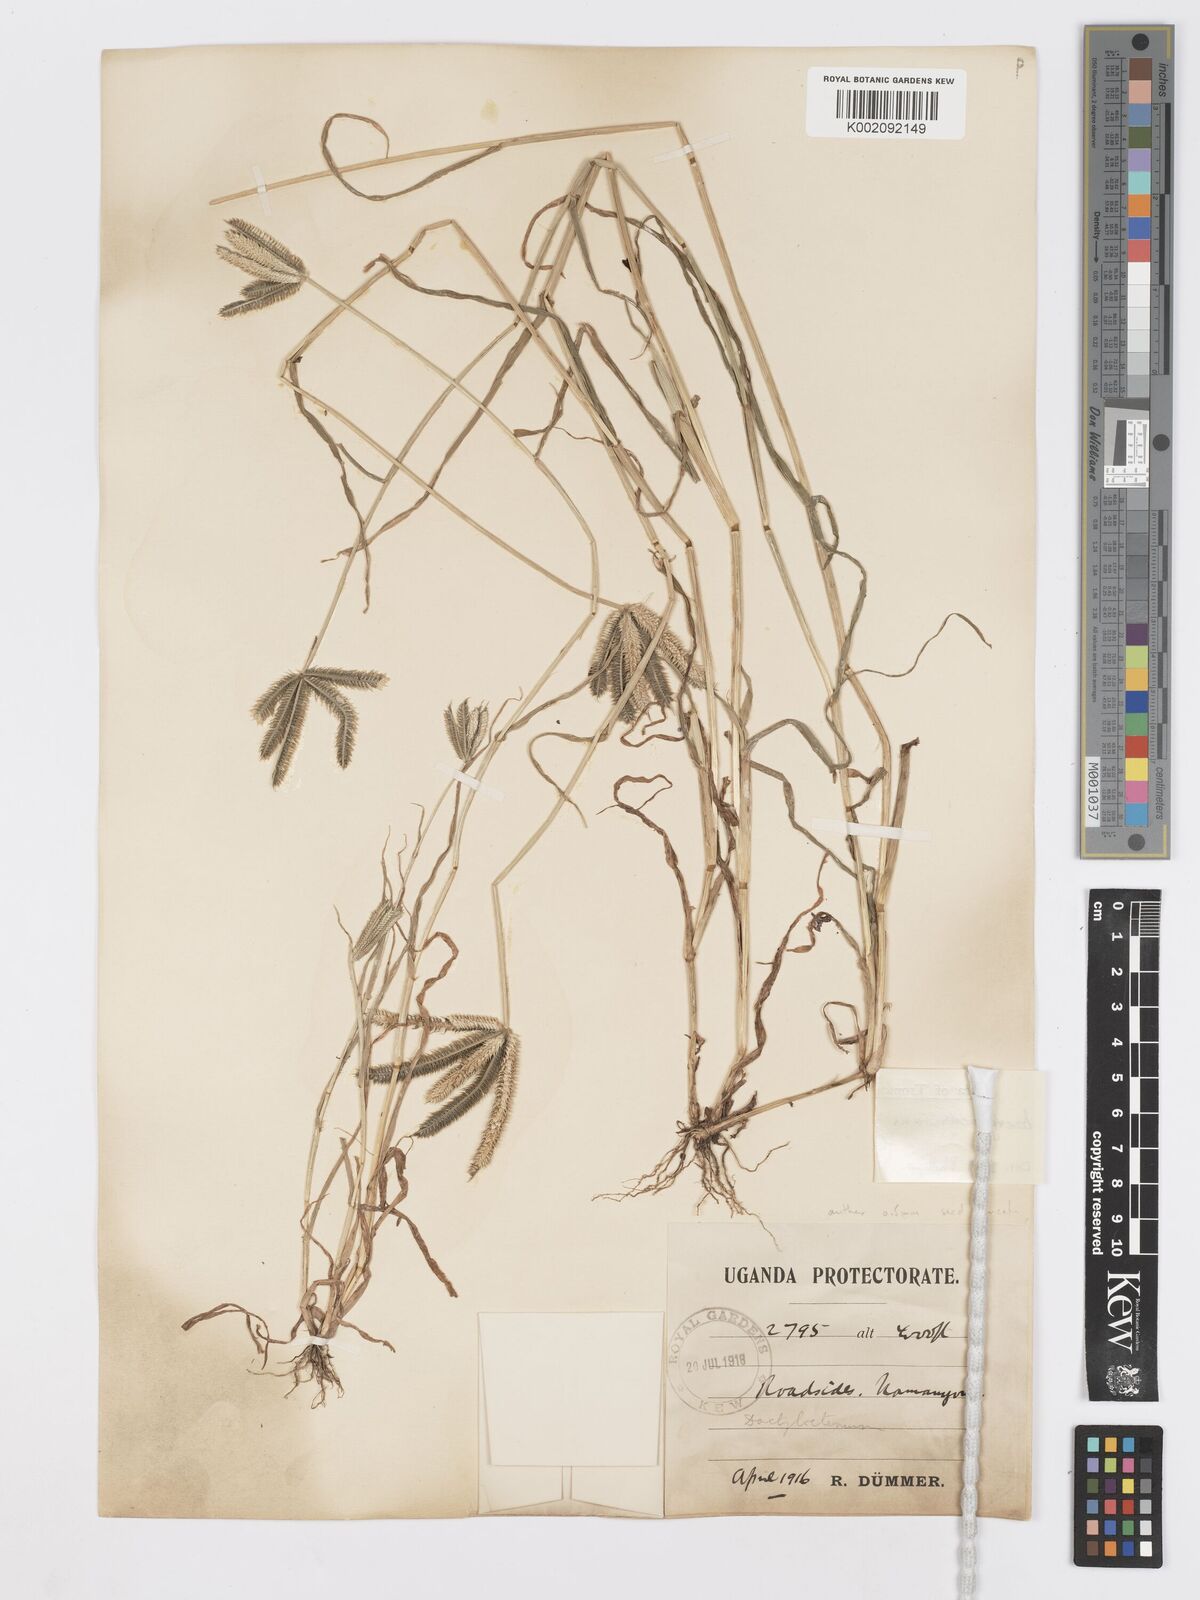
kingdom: Plantae
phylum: Tracheophyta
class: Liliopsida
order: Poales
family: Poaceae
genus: Dactyloctenium
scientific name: Dactyloctenium aegyptium
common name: Egyptian grass
